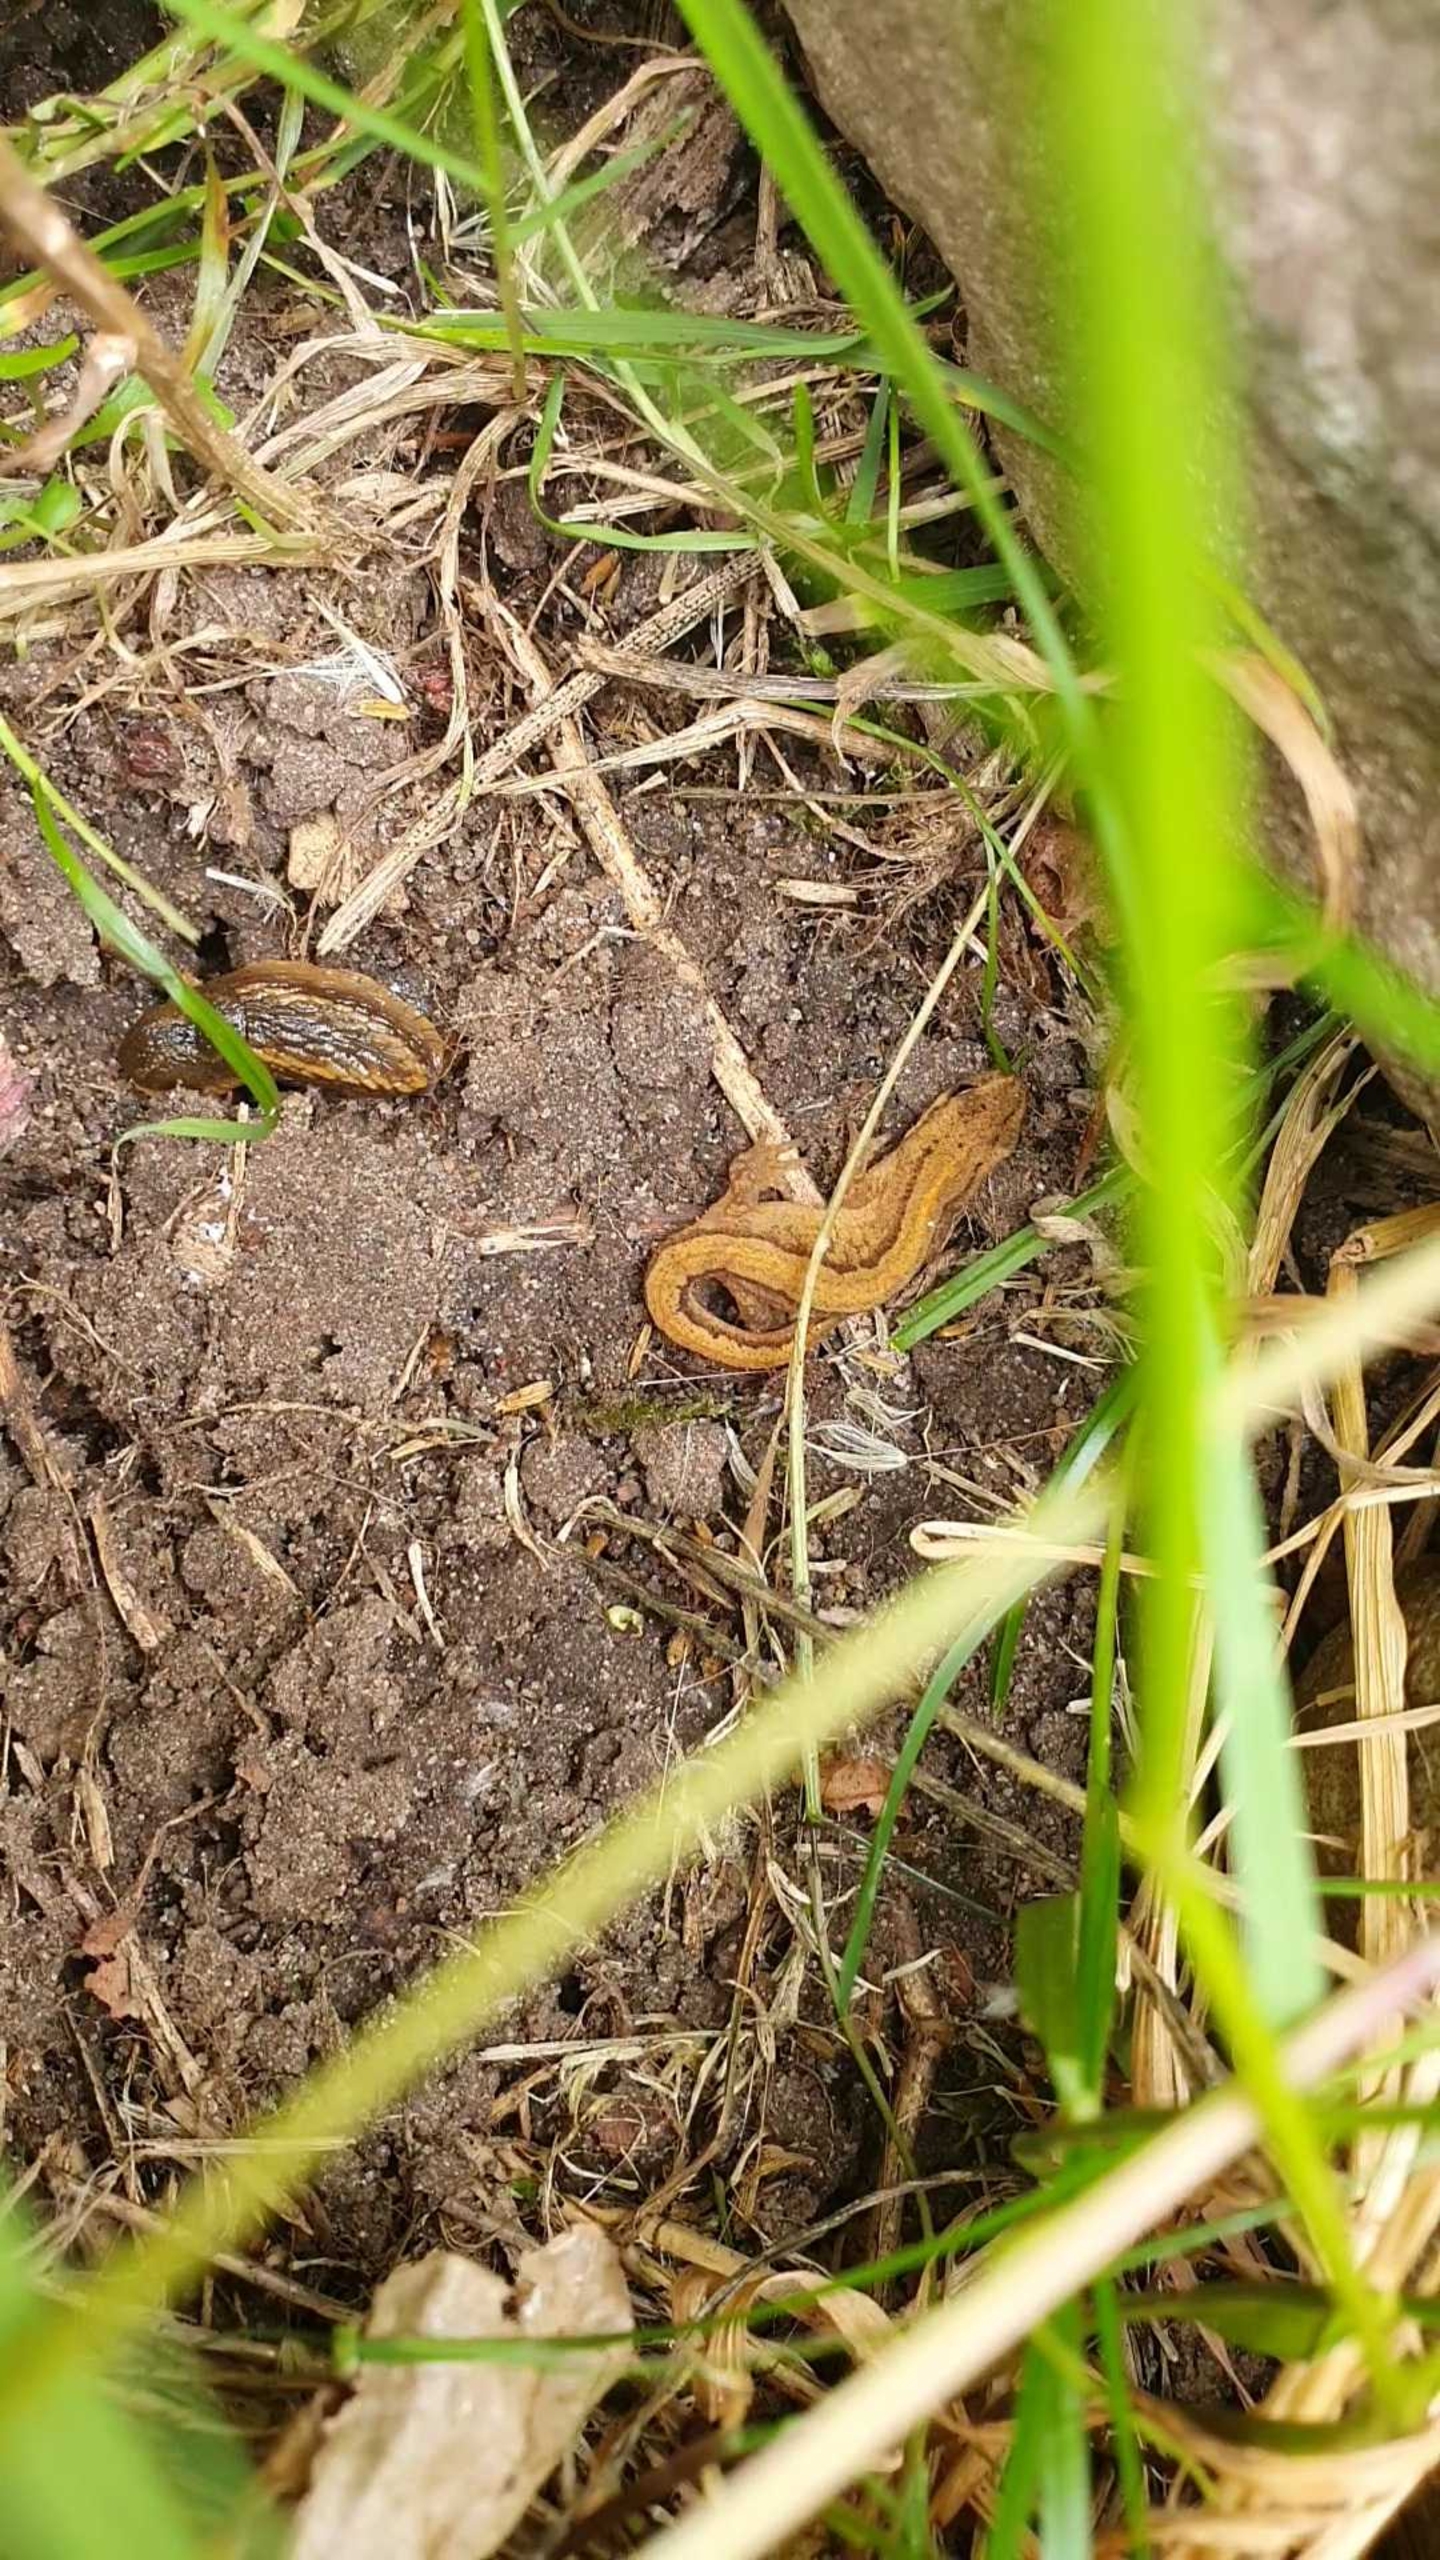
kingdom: Animalia
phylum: Chordata
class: Amphibia
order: Caudata
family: Salamandridae
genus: Lissotriton
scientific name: Lissotriton vulgaris
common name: Lille vandsalamander
